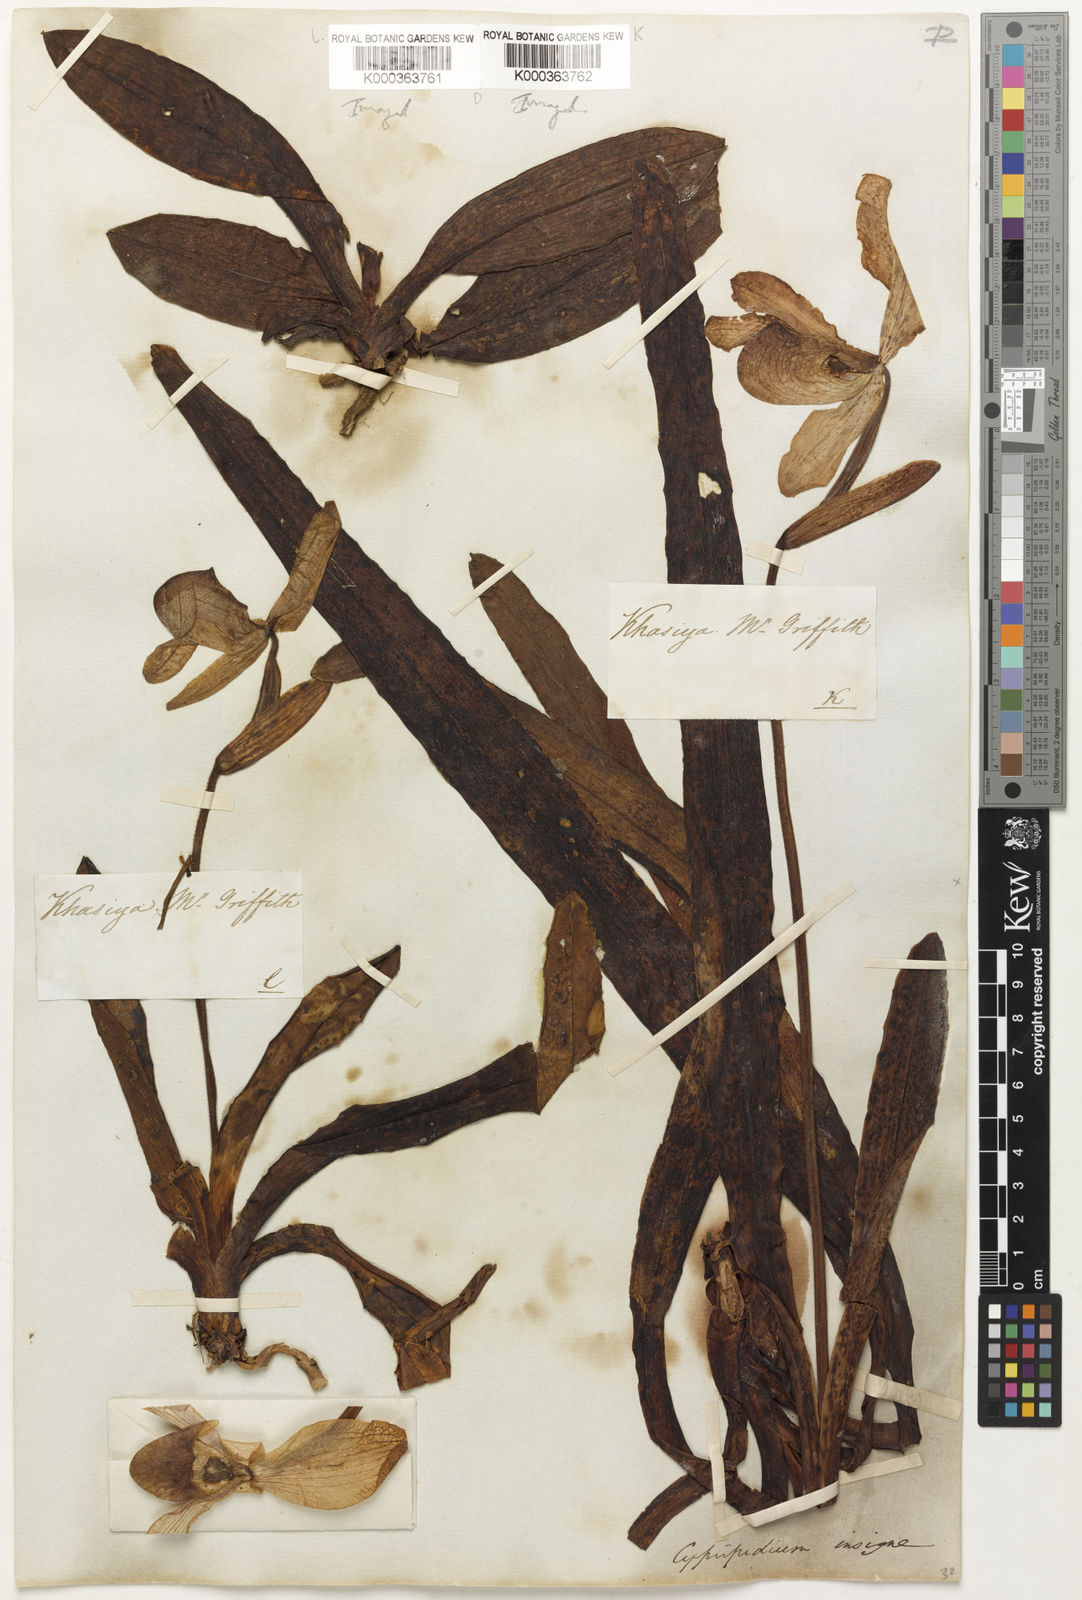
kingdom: Plantae
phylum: Tracheophyta
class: Liliopsida
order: Asparagales
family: Orchidaceae
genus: Paphiopedilum
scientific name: Paphiopedilum insigne
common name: Splendid paphiopedilum
